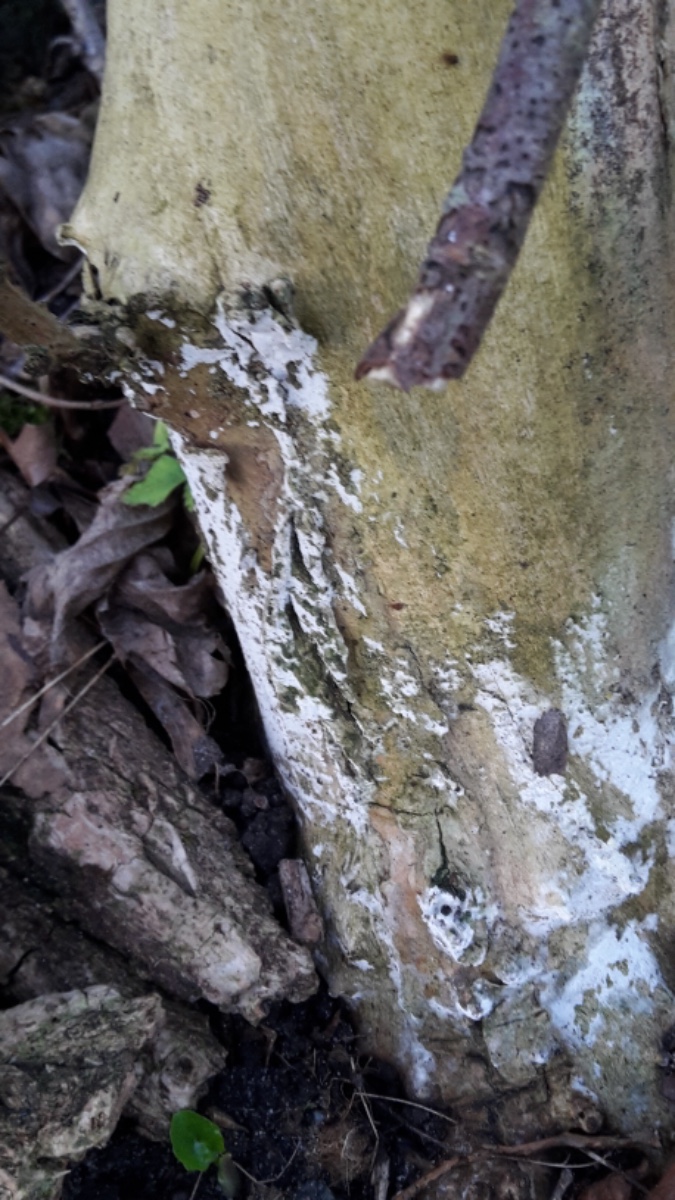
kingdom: Fungi
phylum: Basidiomycota
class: Agaricomycetes
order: Corticiales
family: Corticiaceae
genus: Lyomyces
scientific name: Lyomyces sambuci
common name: almindelig hyldehinde
